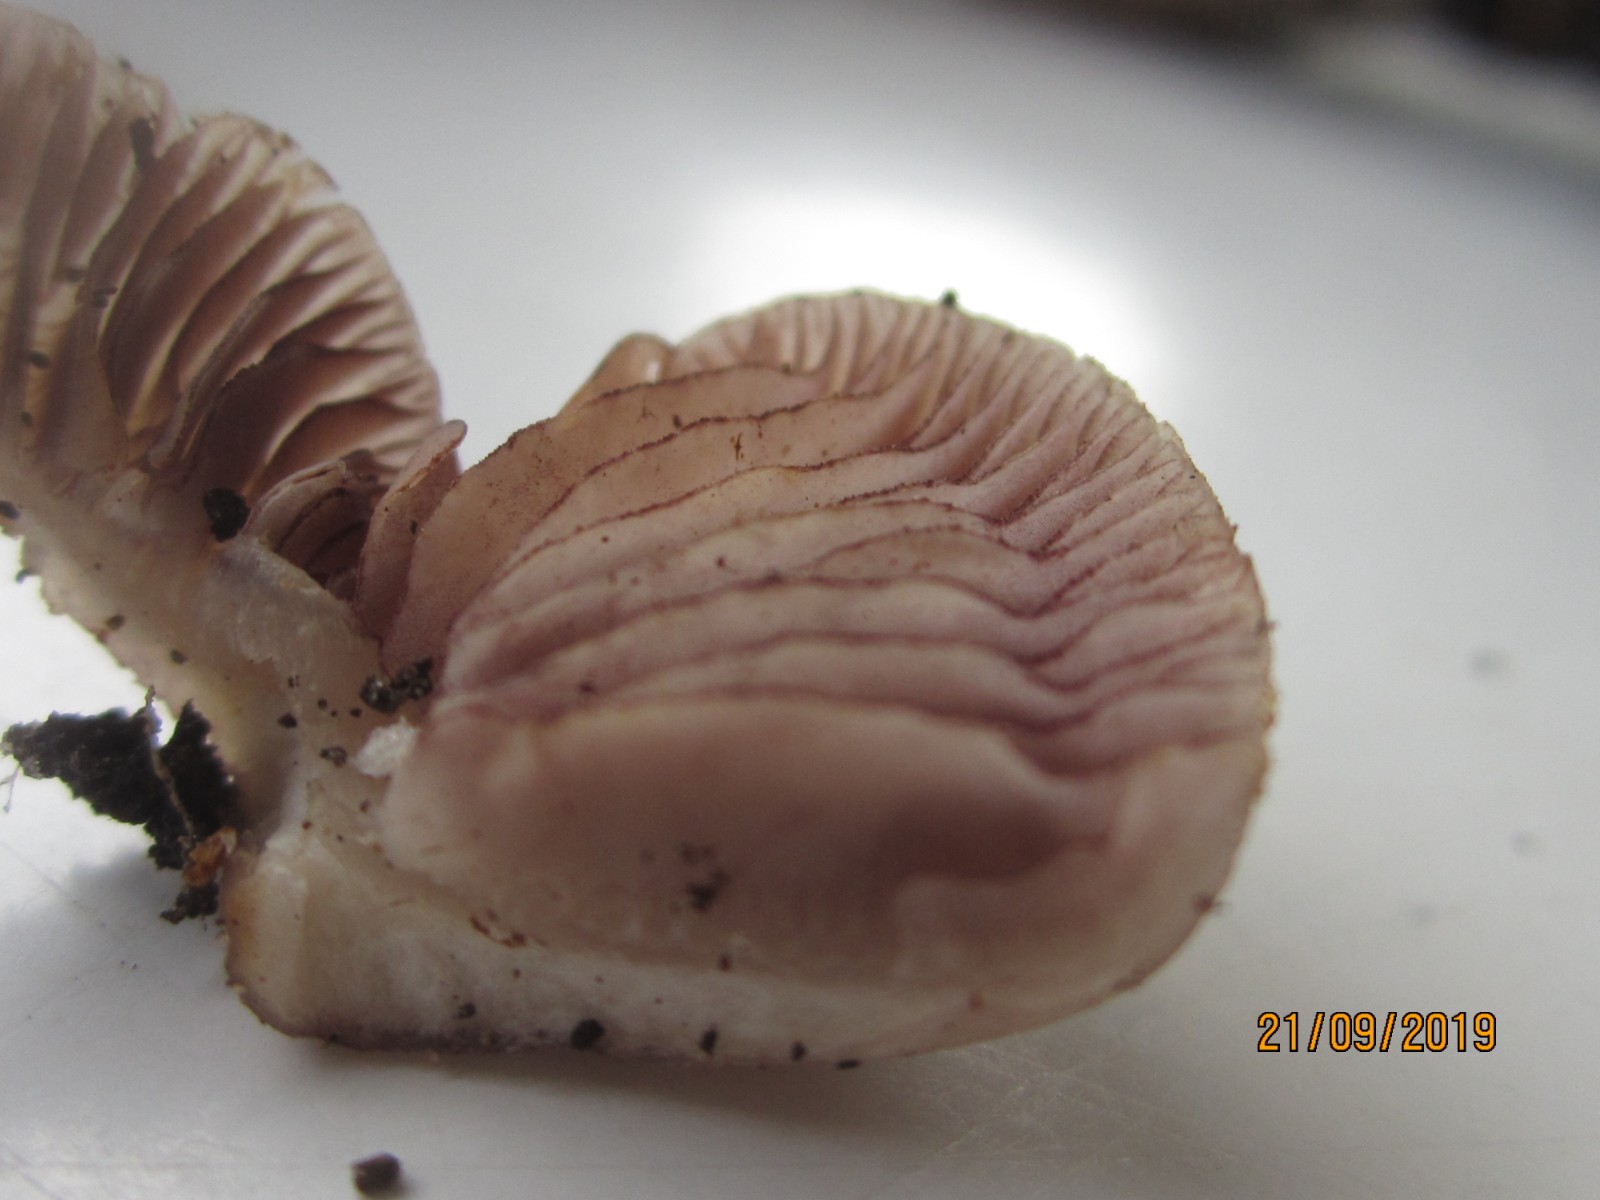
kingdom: Fungi
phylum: Basidiomycota
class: Agaricomycetes
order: Agaricales
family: Mycenaceae
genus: Mycena
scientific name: Mycena pelianthina
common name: mørkbladet huesvamp
